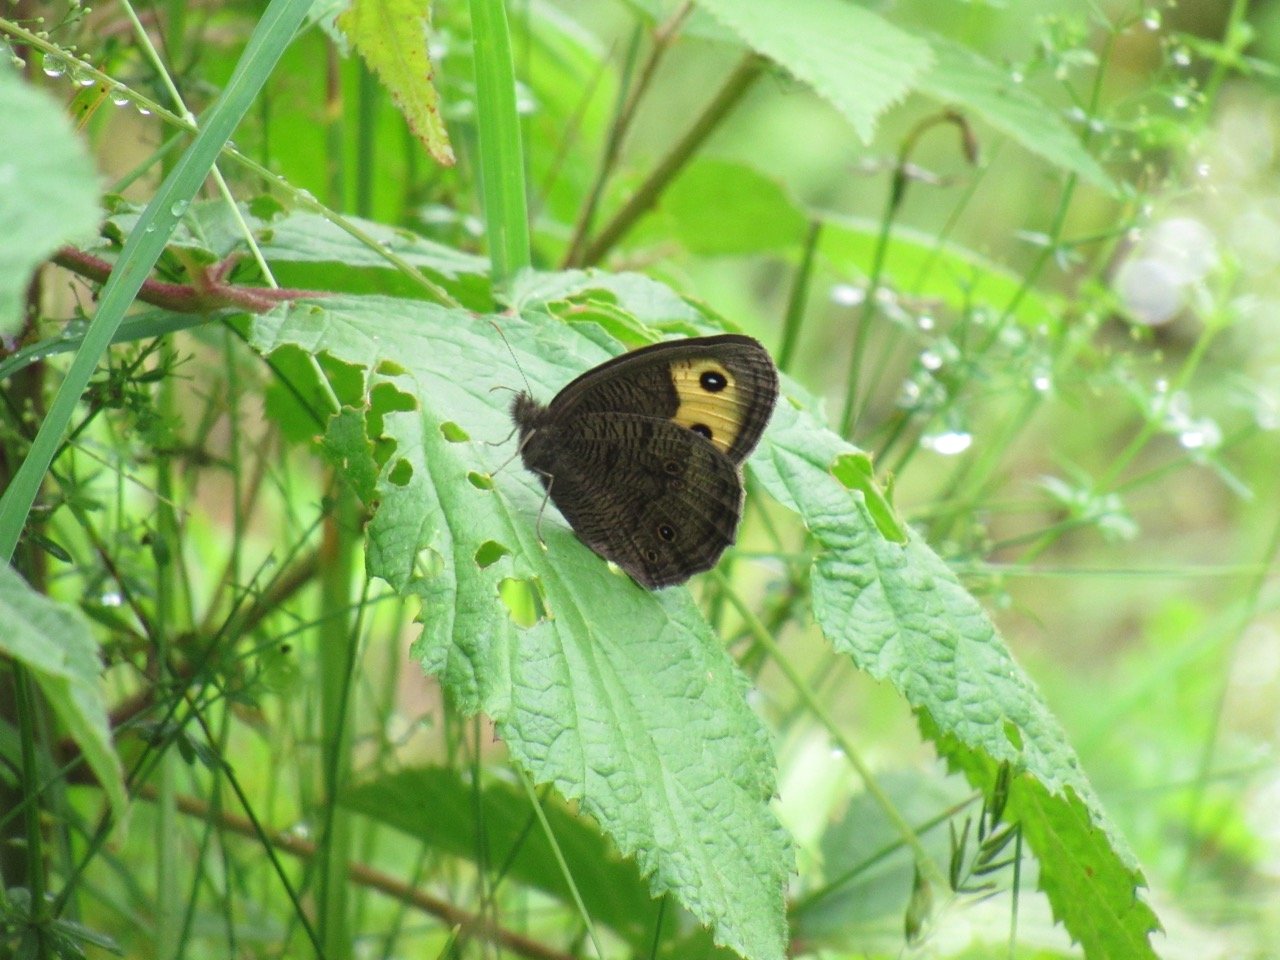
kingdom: Animalia
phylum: Arthropoda
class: Insecta
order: Lepidoptera
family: Nymphalidae
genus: Cercyonis
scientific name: Cercyonis pegala
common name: Common Wood-Nymph
